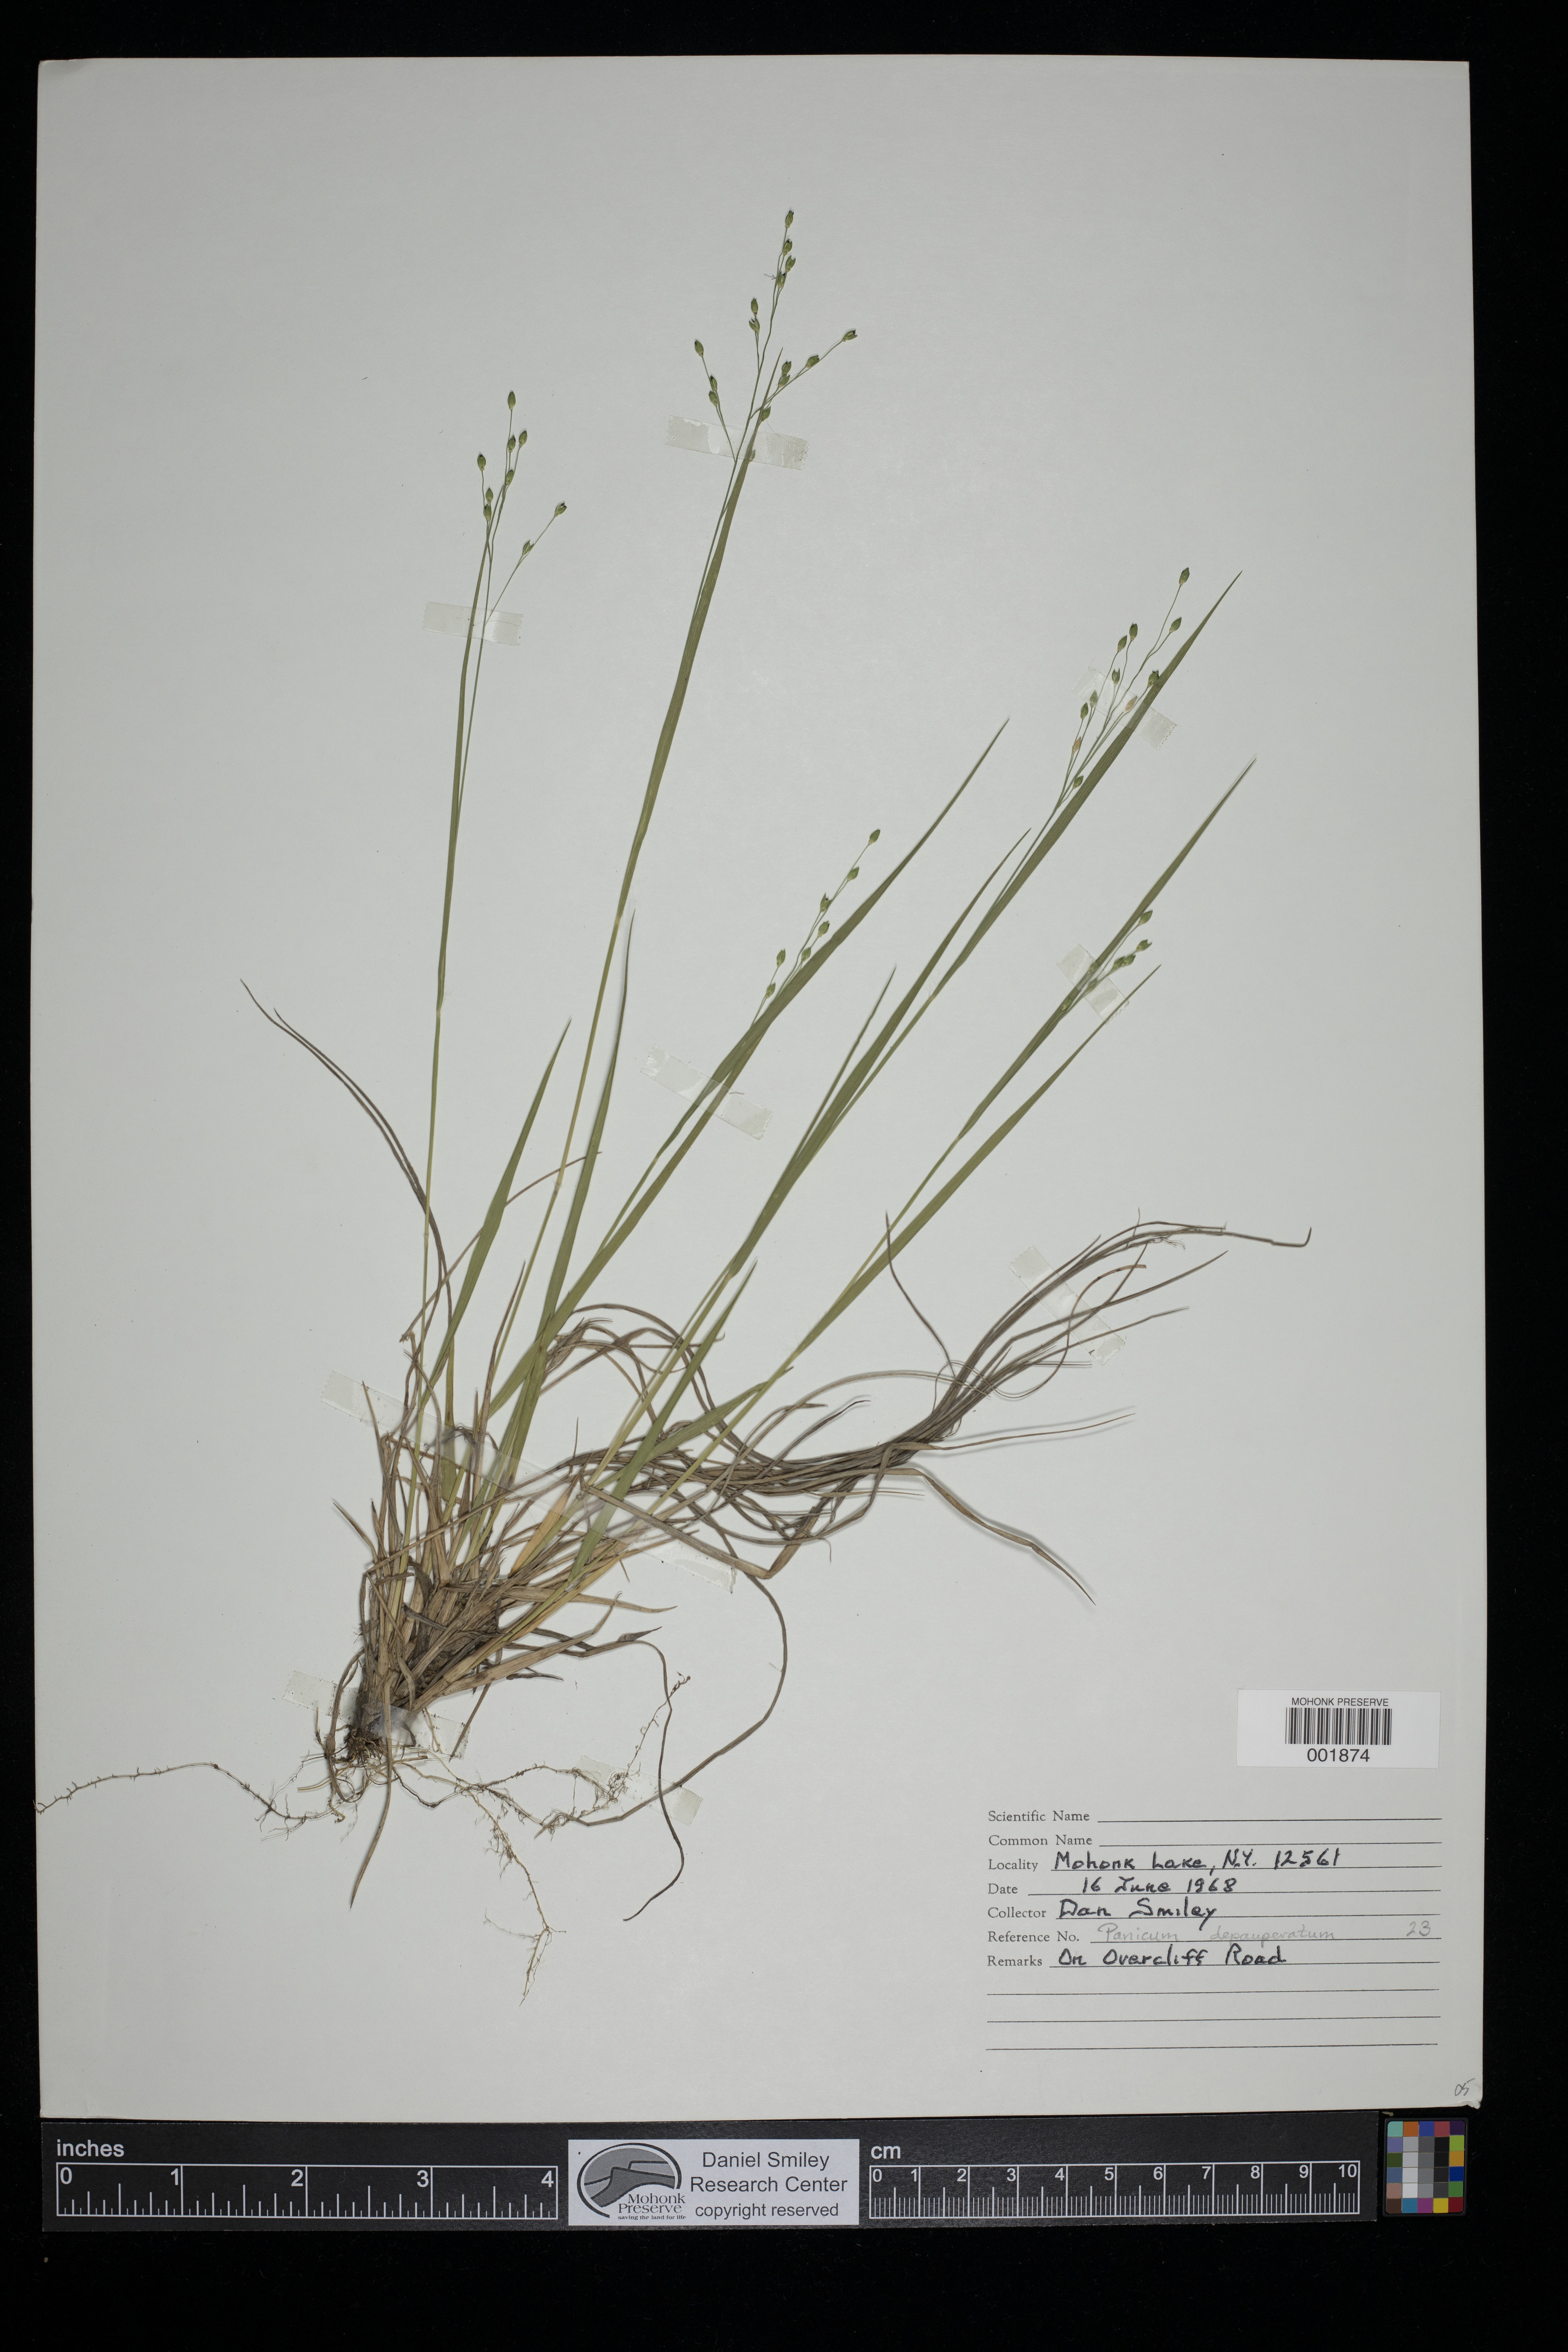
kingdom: Plantae
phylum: Tracheophyta
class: Liliopsida
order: Poales
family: Poaceae
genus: Dichanthelium
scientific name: Dichanthelium depauperatum
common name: Depauperate panicgrass
